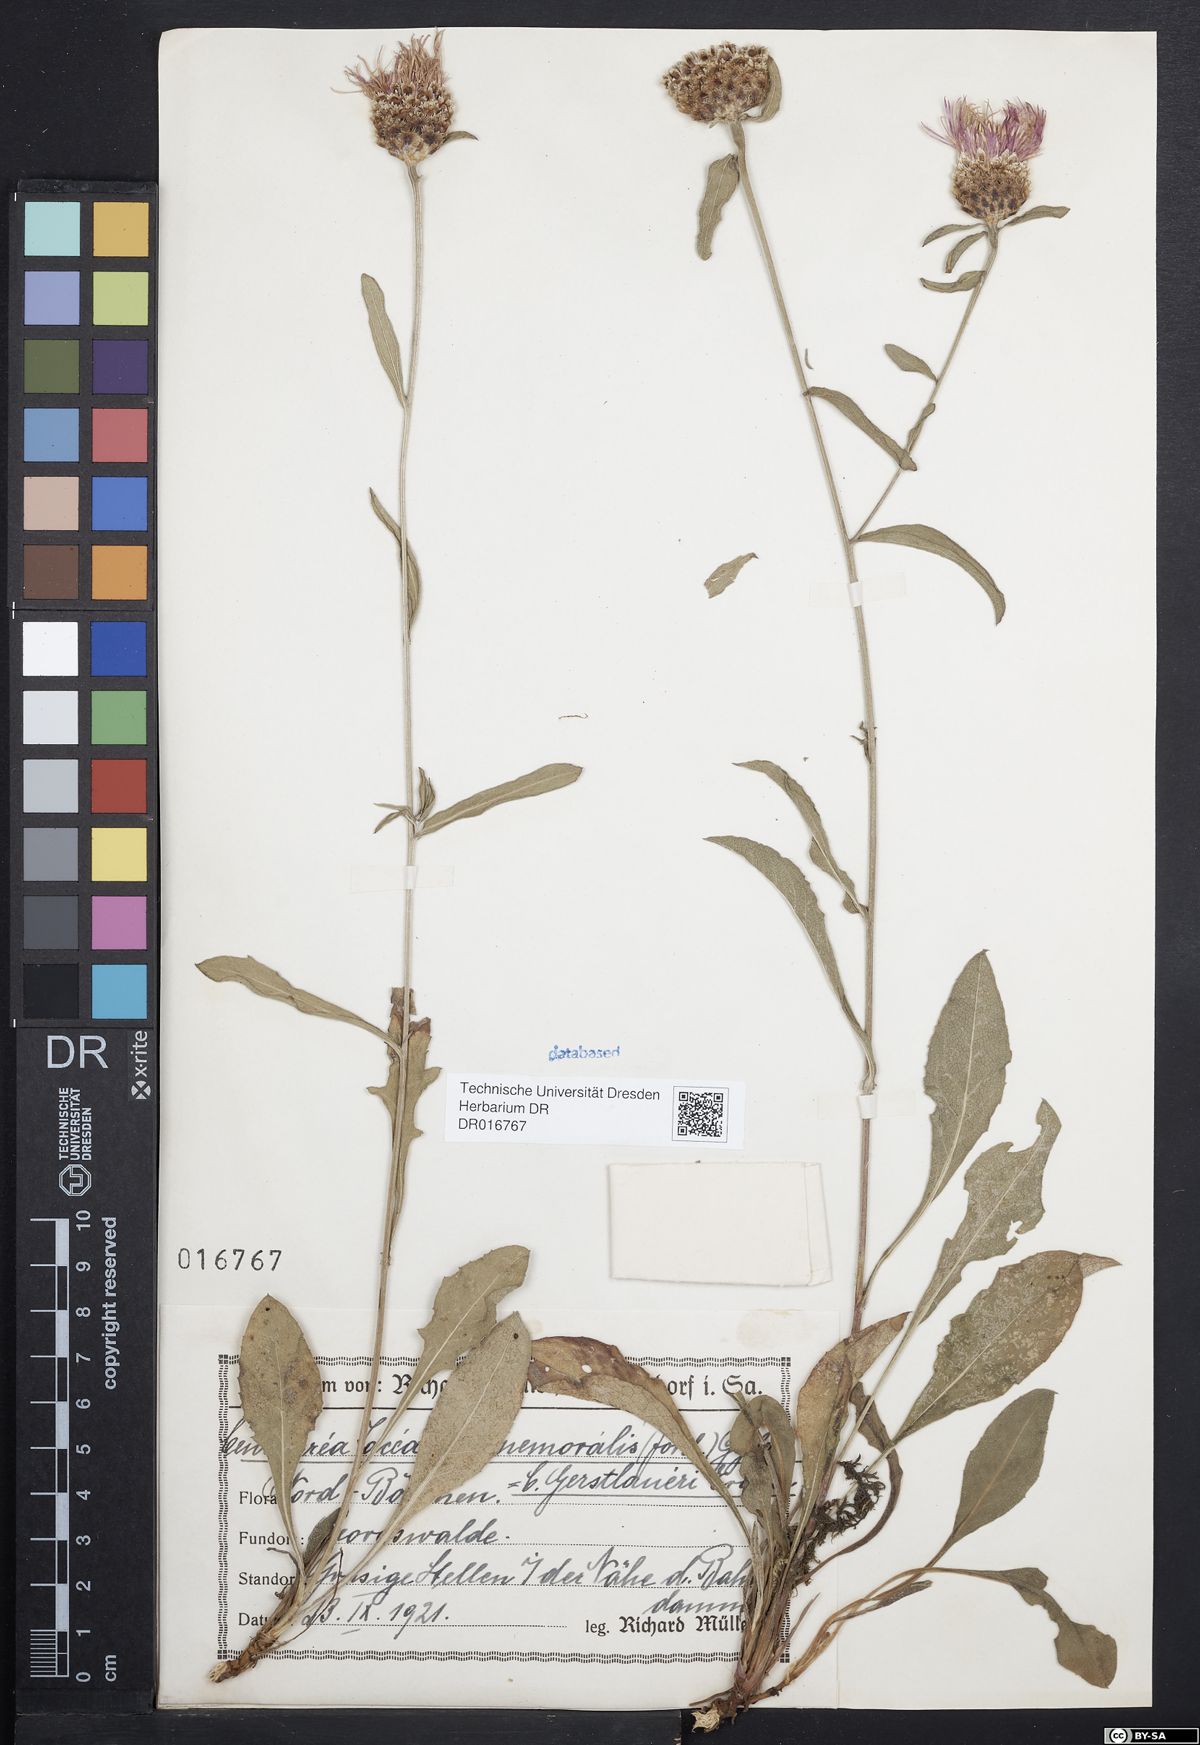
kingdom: Plantae
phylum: Tracheophyta
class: Magnoliopsida
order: Asterales
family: Asteraceae
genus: Centaurea
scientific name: Centaurea jacea
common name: Brown knapweed
